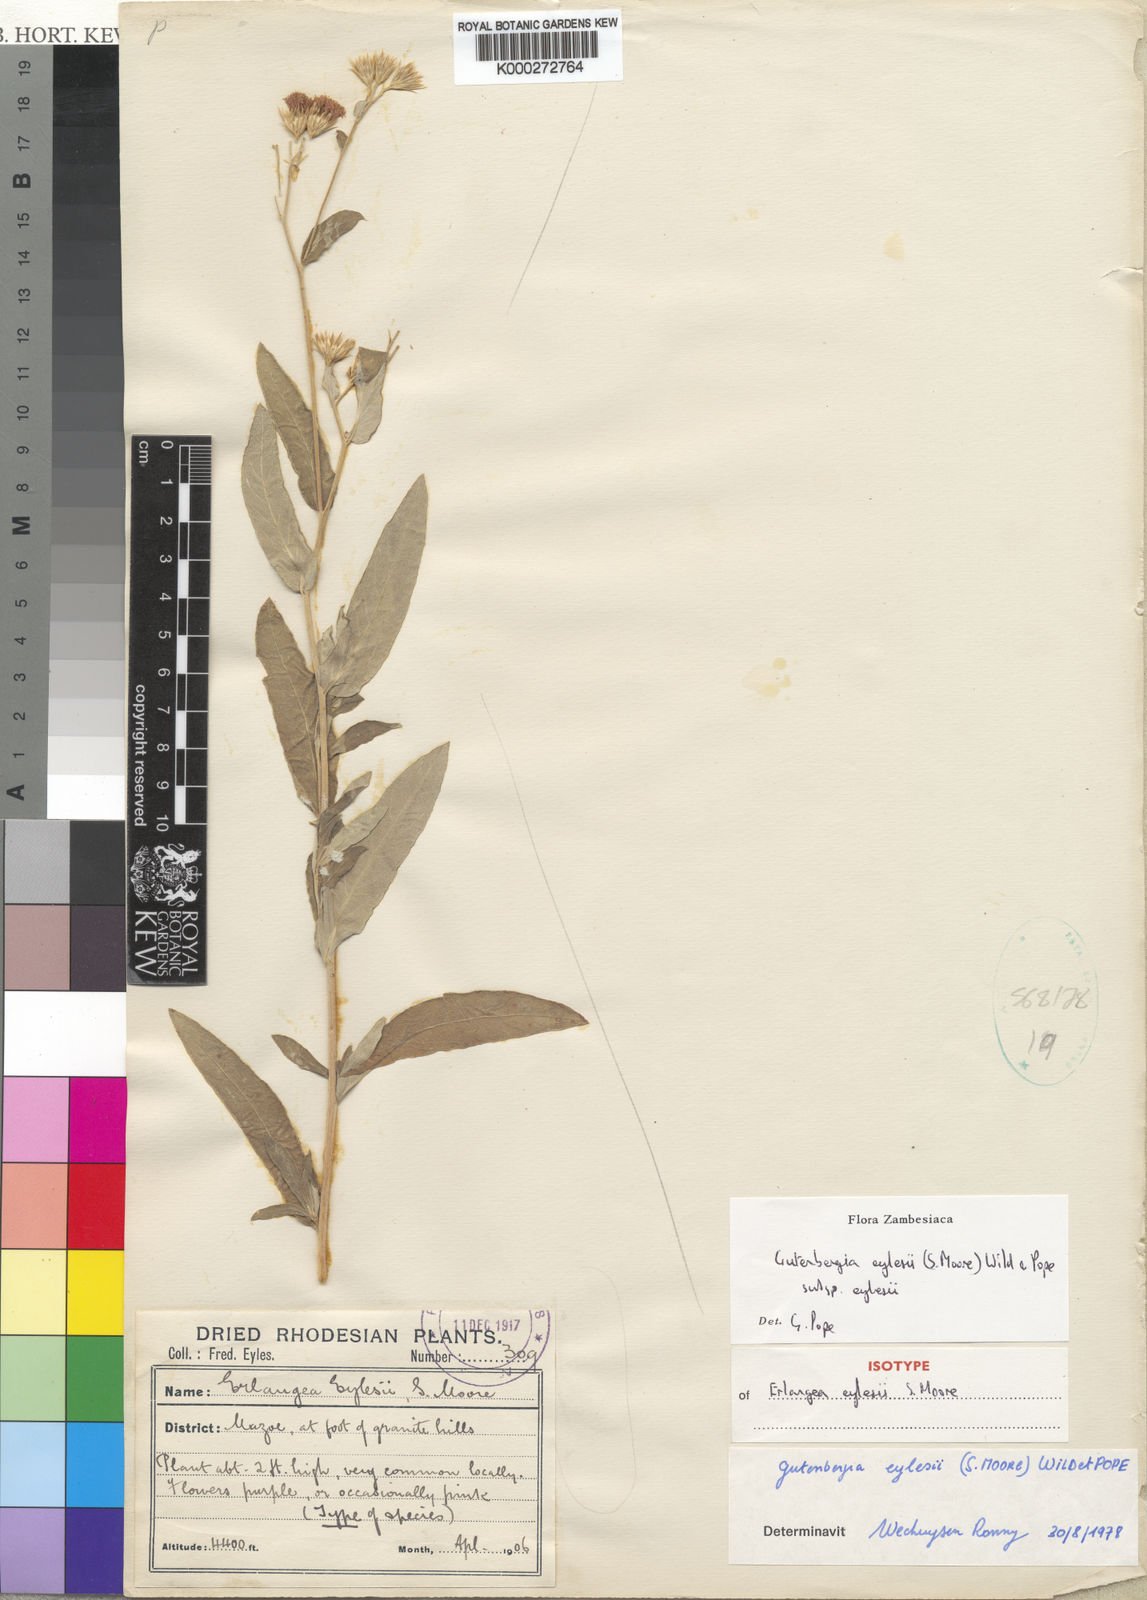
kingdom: Plantae
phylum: Tracheophyta
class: Magnoliopsida
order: Asterales
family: Asteraceae
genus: Gutenbergia
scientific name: Gutenbergia eylesii
